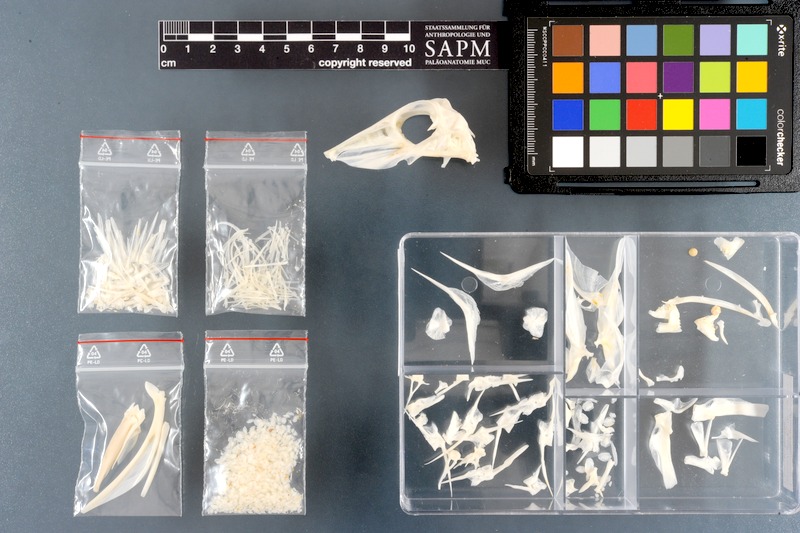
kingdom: Animalia
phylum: Chordata
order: Tetraodontiformes
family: Balistidae
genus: Balistapus
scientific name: Balistapus undulatus
